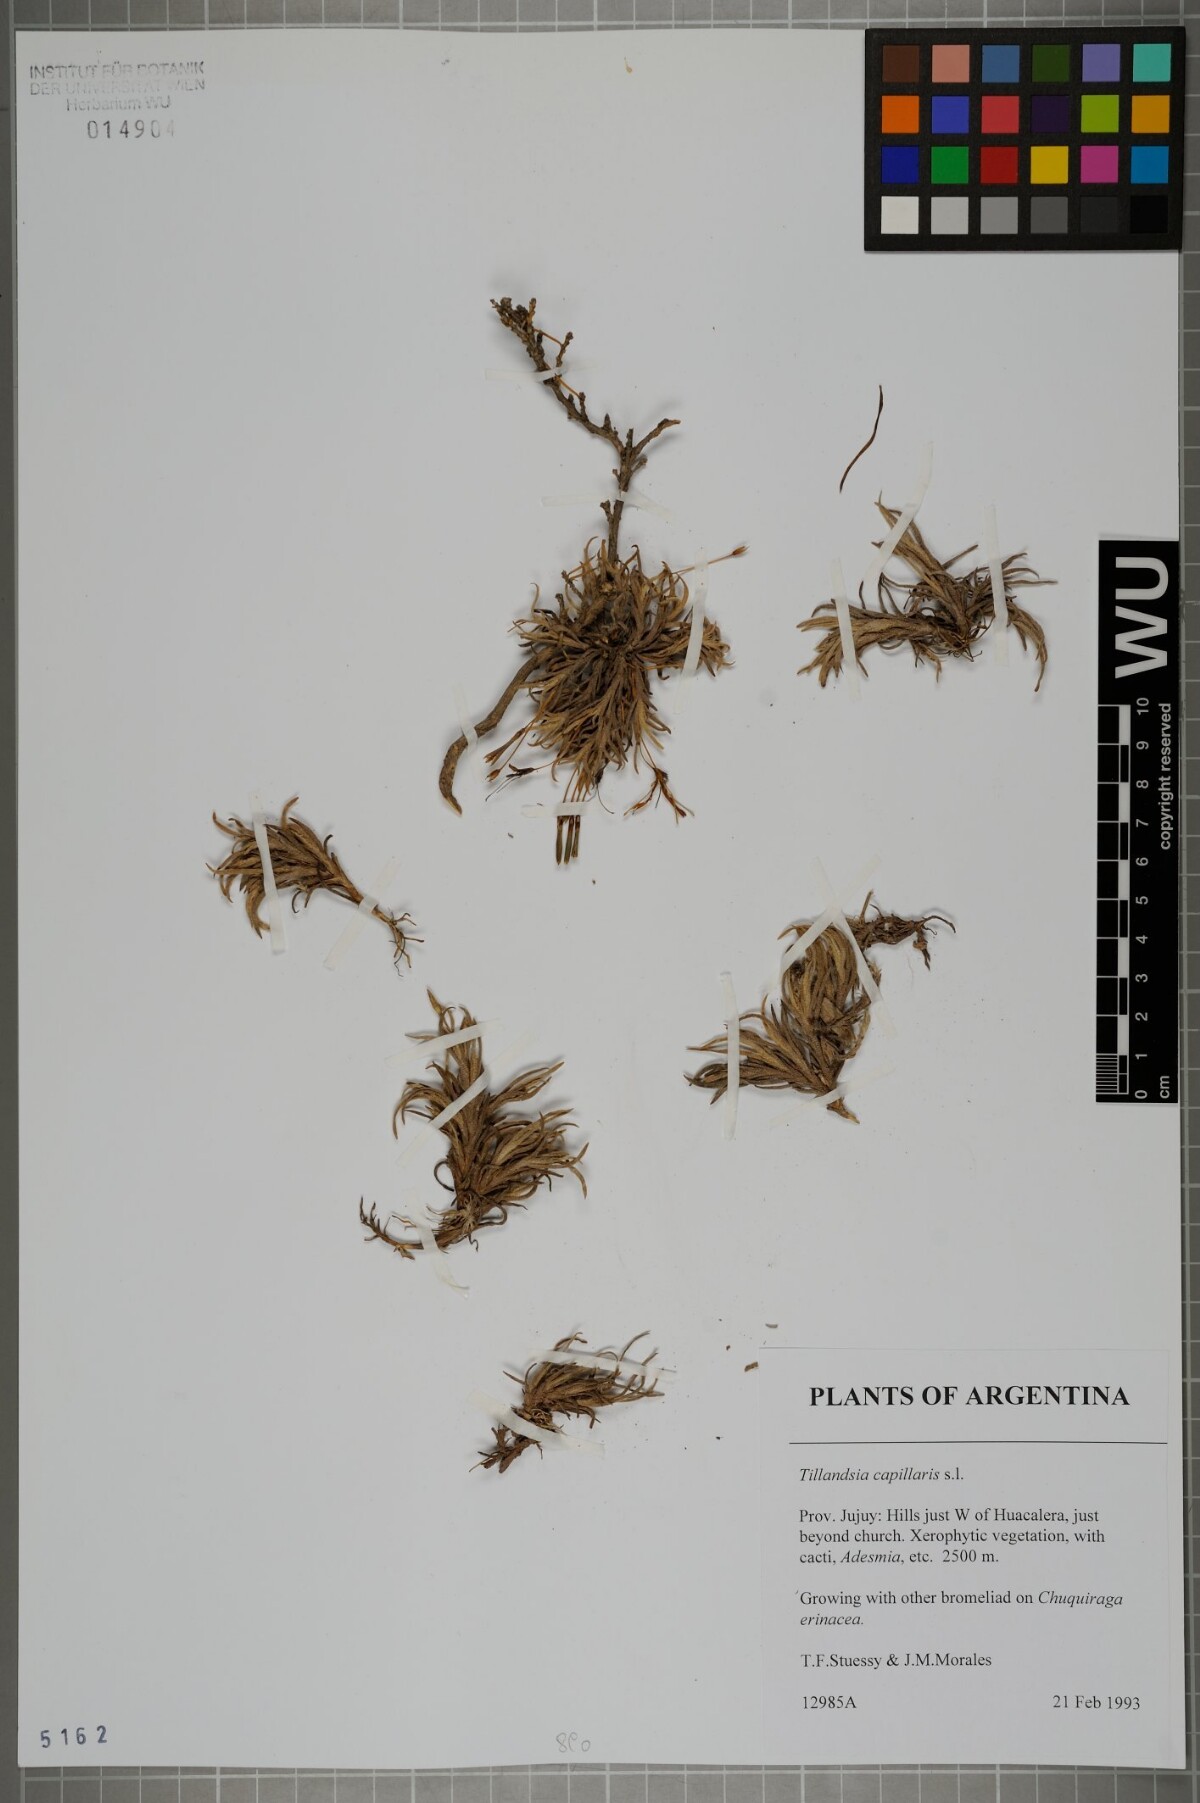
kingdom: Plantae
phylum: Tracheophyta
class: Liliopsida
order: Poales
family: Bromeliaceae
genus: Tillandsia
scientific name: Tillandsia capillaris
